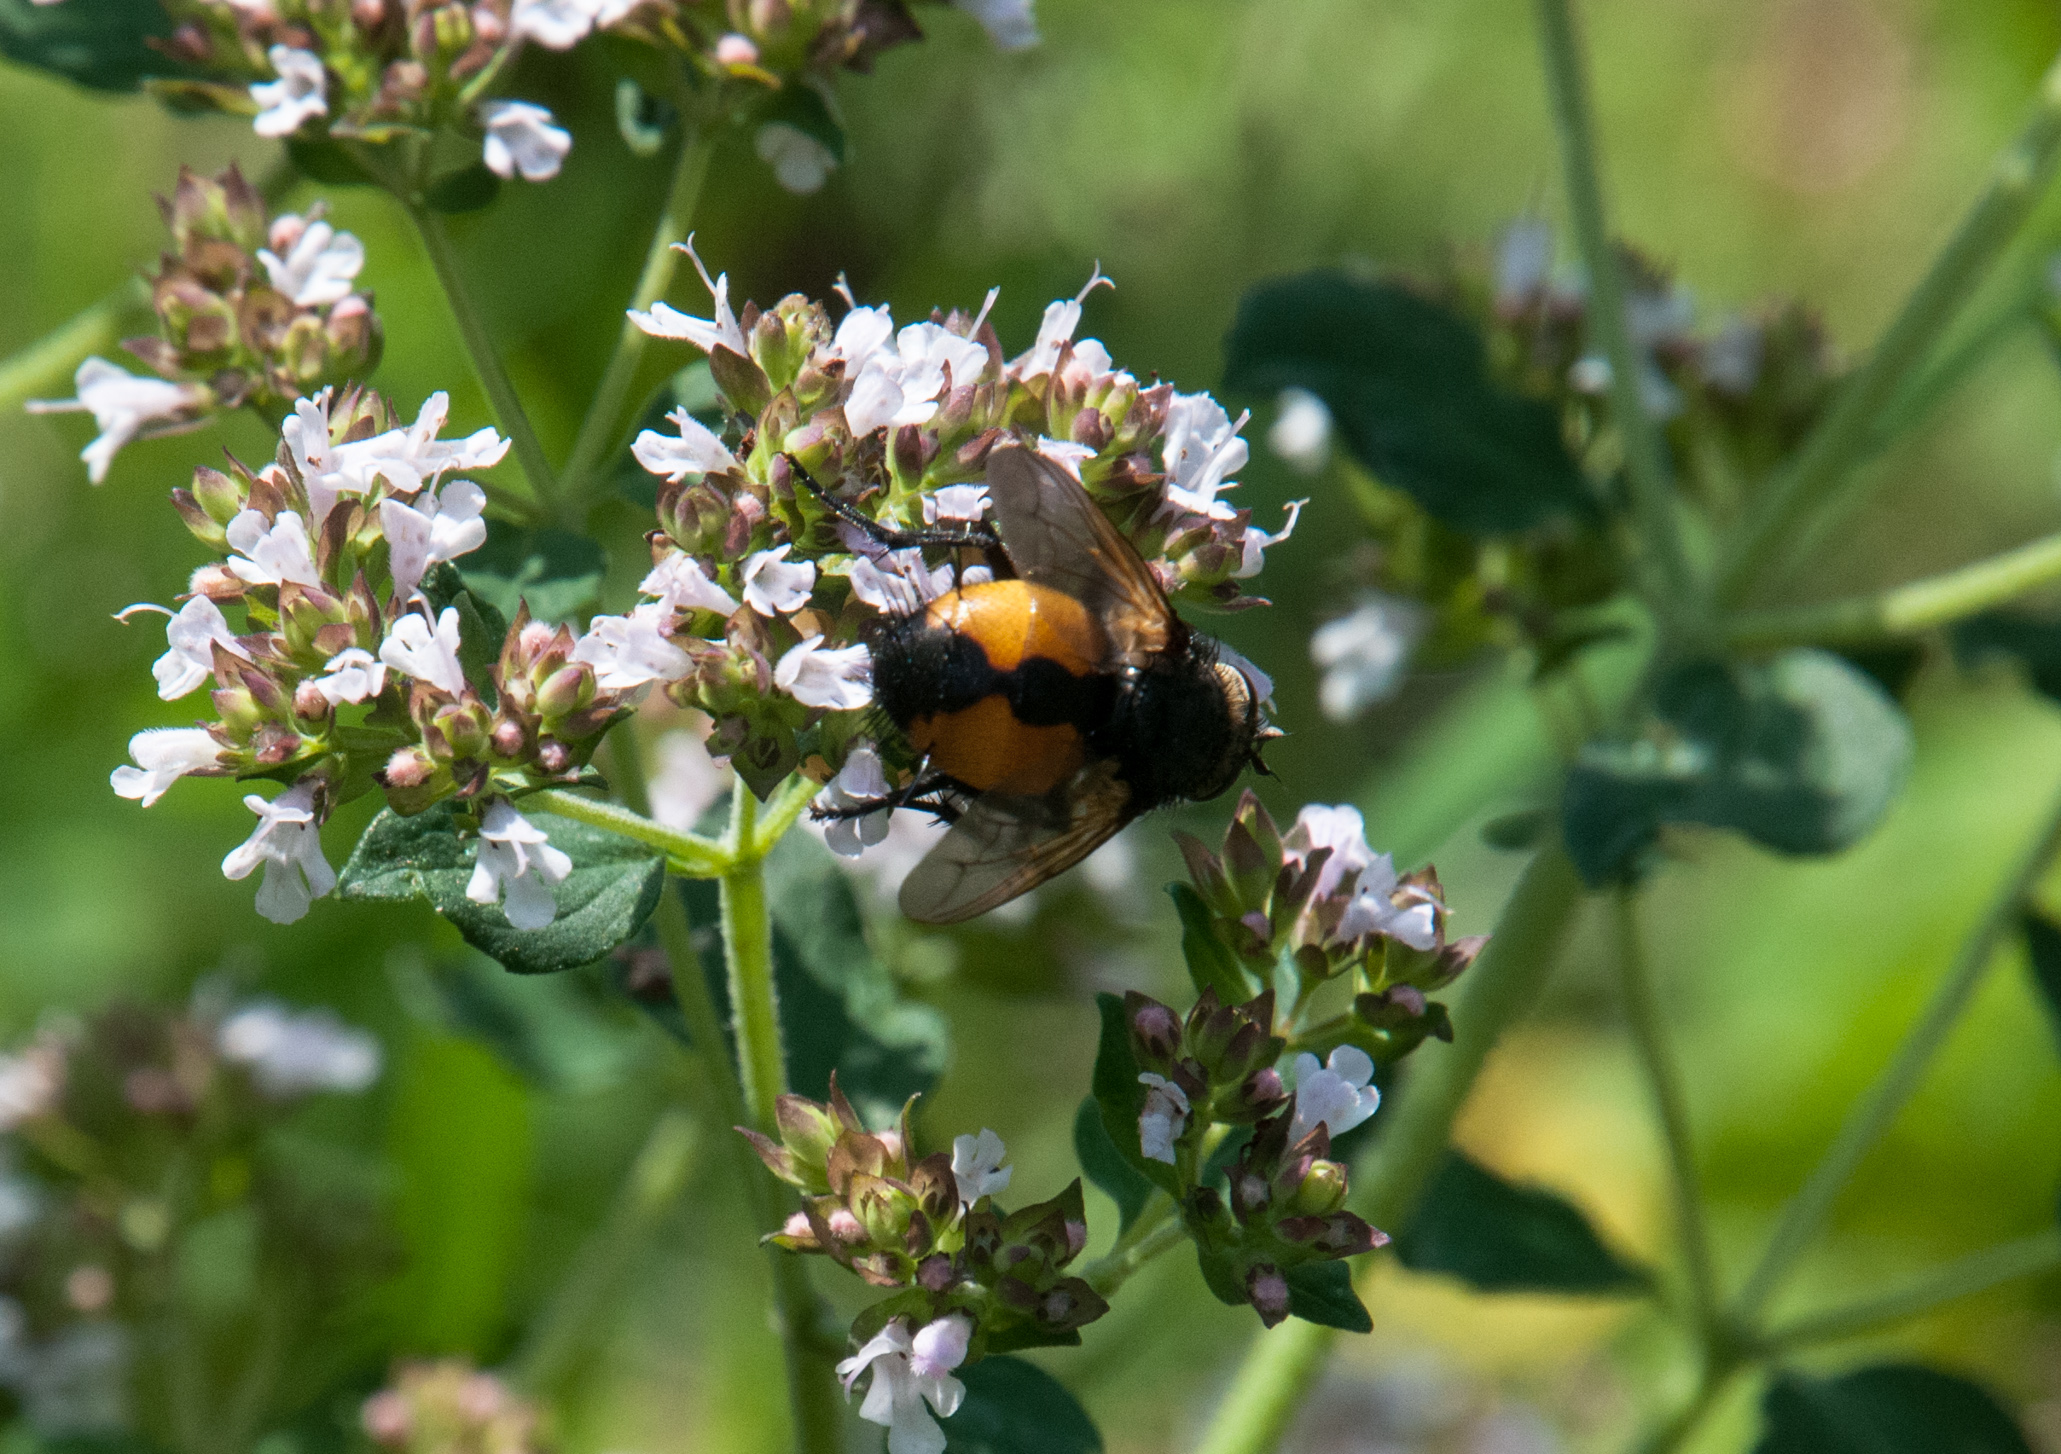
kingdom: Animalia
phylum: Arthropoda
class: Insecta
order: Diptera
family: Tachinidae
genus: Tachina
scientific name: Tachina fera
